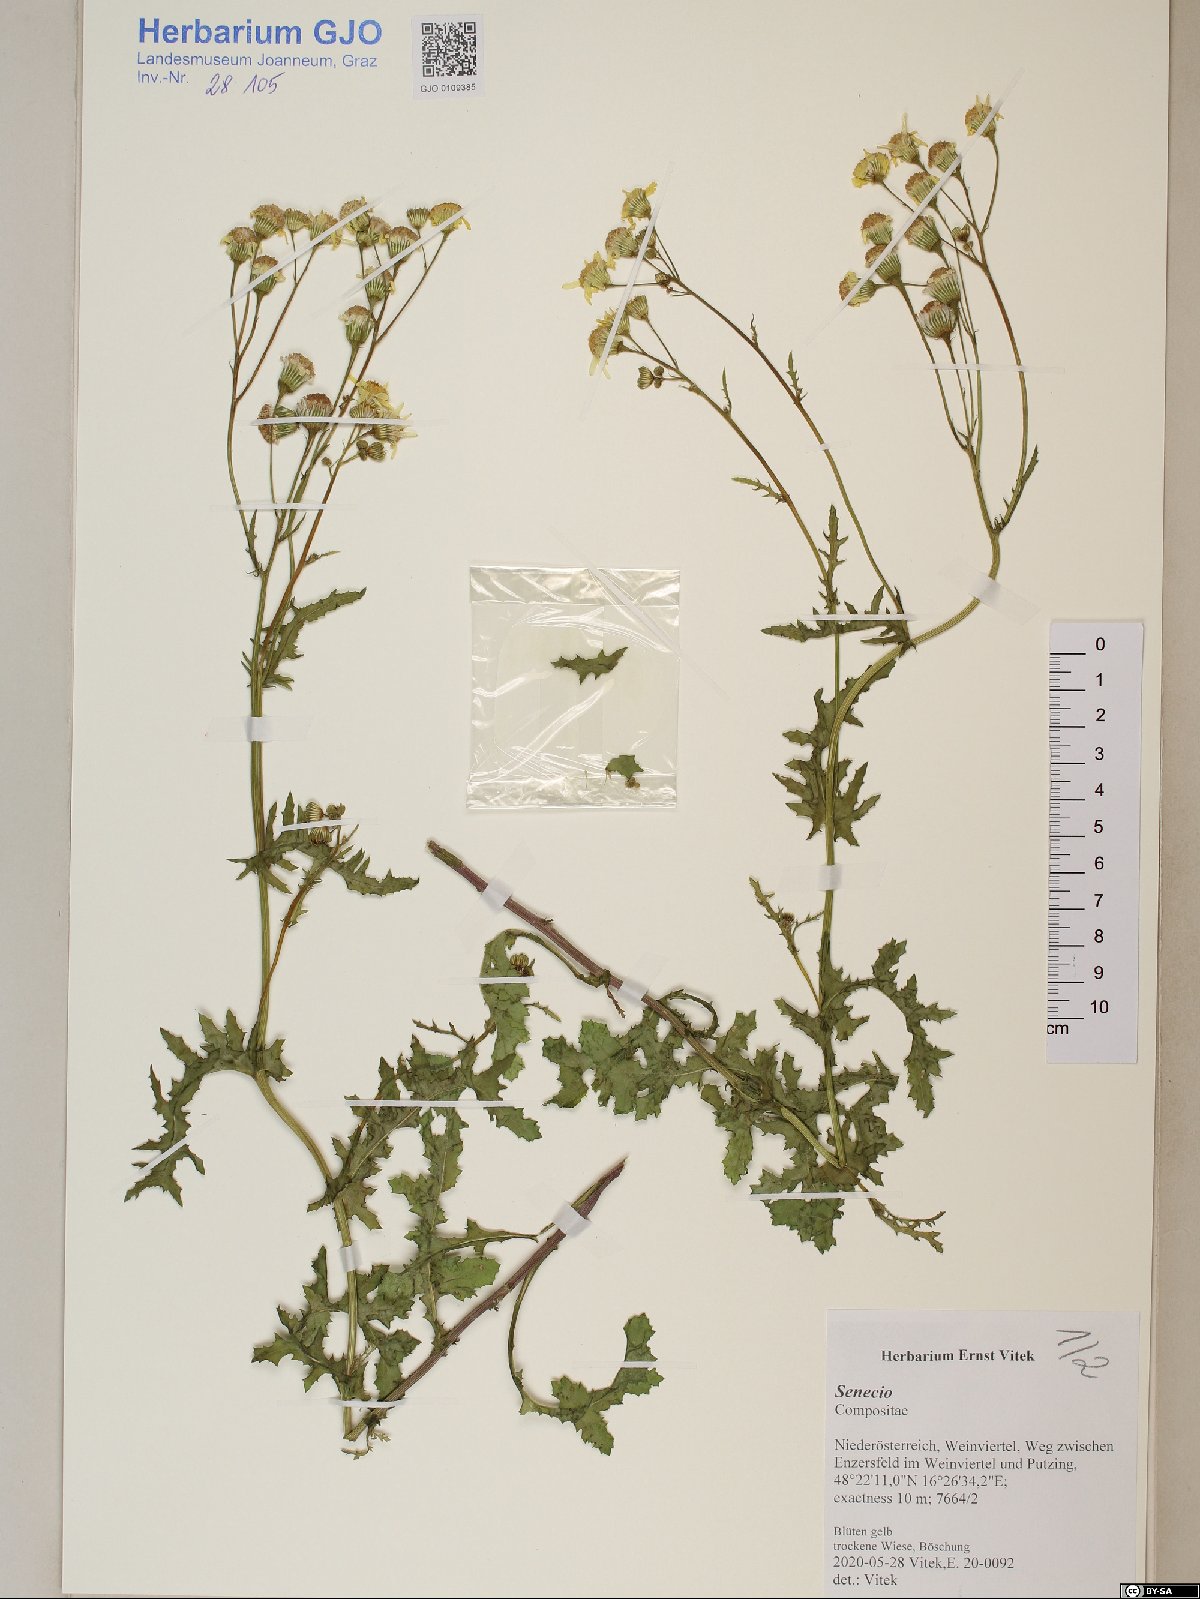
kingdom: Plantae
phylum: Tracheophyta
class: Magnoliopsida
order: Asterales
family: Asteraceae
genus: Senecio
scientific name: Senecio
